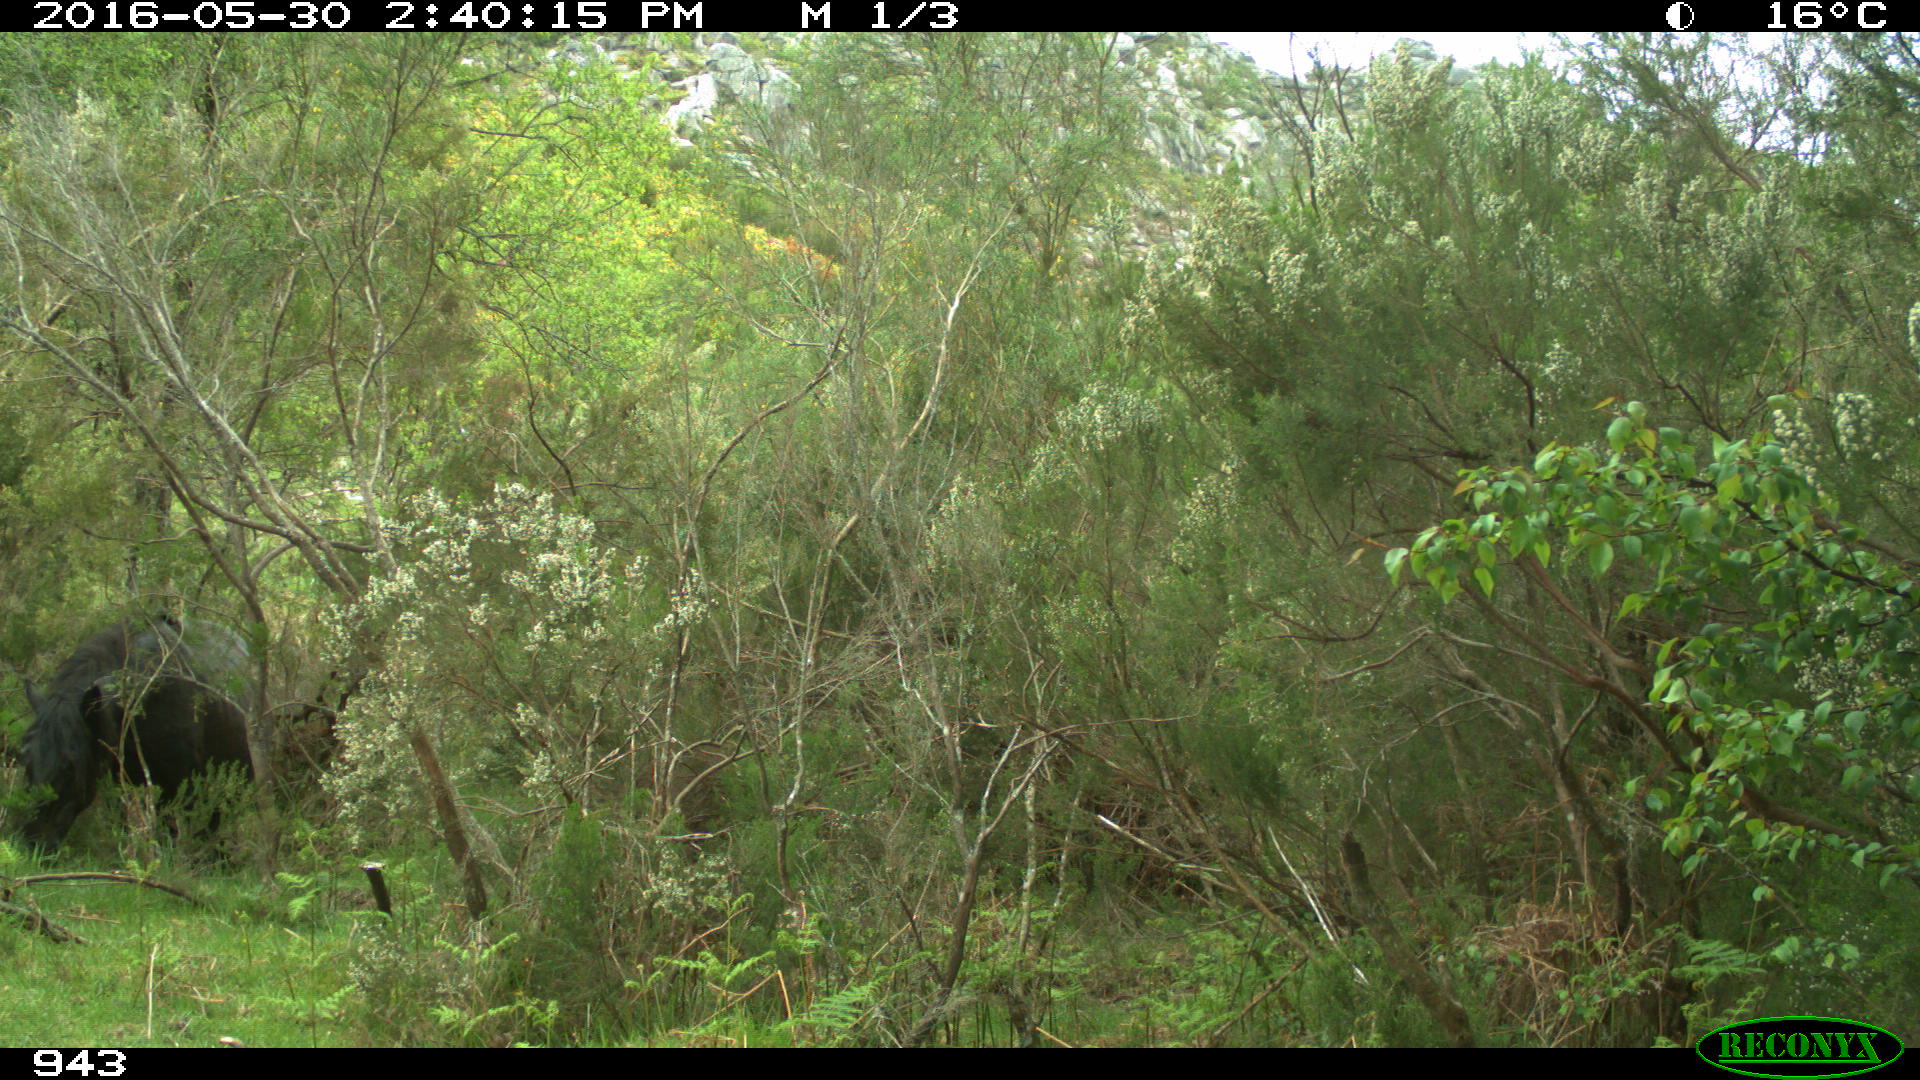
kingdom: Animalia
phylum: Chordata
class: Mammalia
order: Perissodactyla
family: Equidae
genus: Equus
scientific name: Equus caballus
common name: Horse
